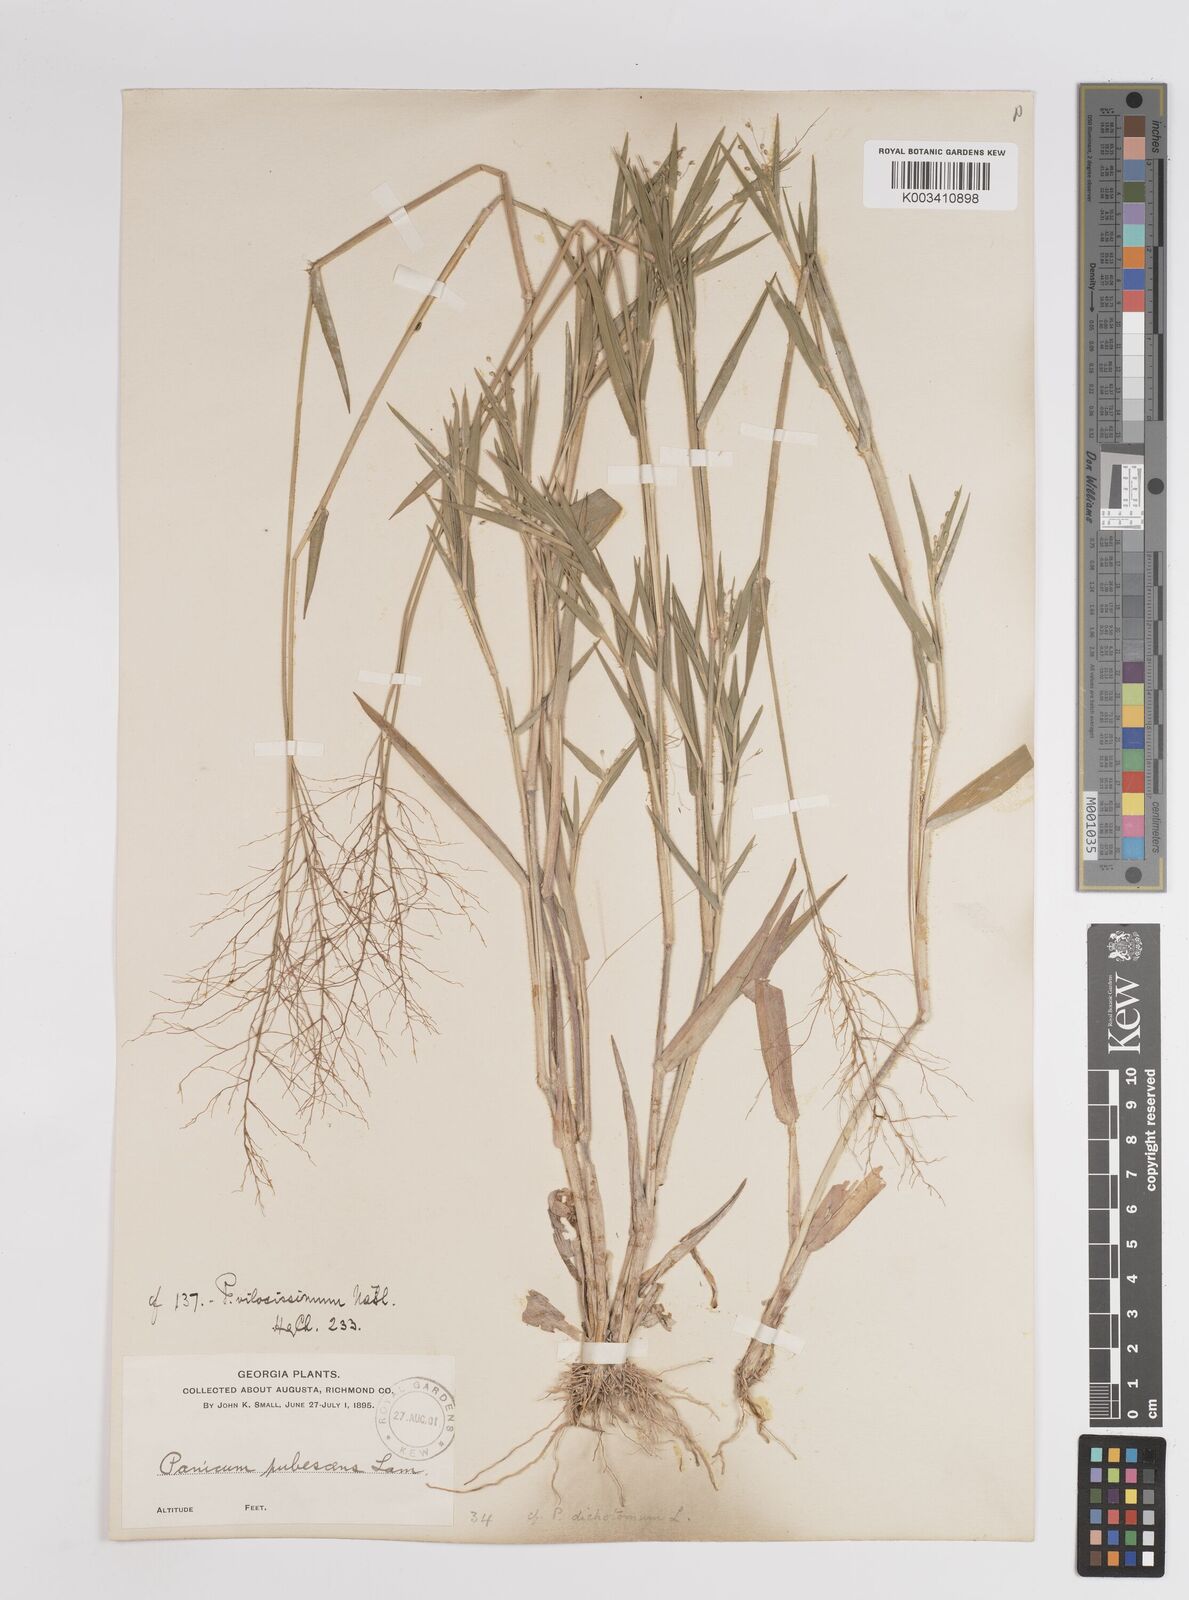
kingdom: Plantae
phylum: Tracheophyta
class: Liliopsida
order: Poales
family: Poaceae
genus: Dichanthelium
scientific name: Dichanthelium villosissimum
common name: White-haired panicgrass
